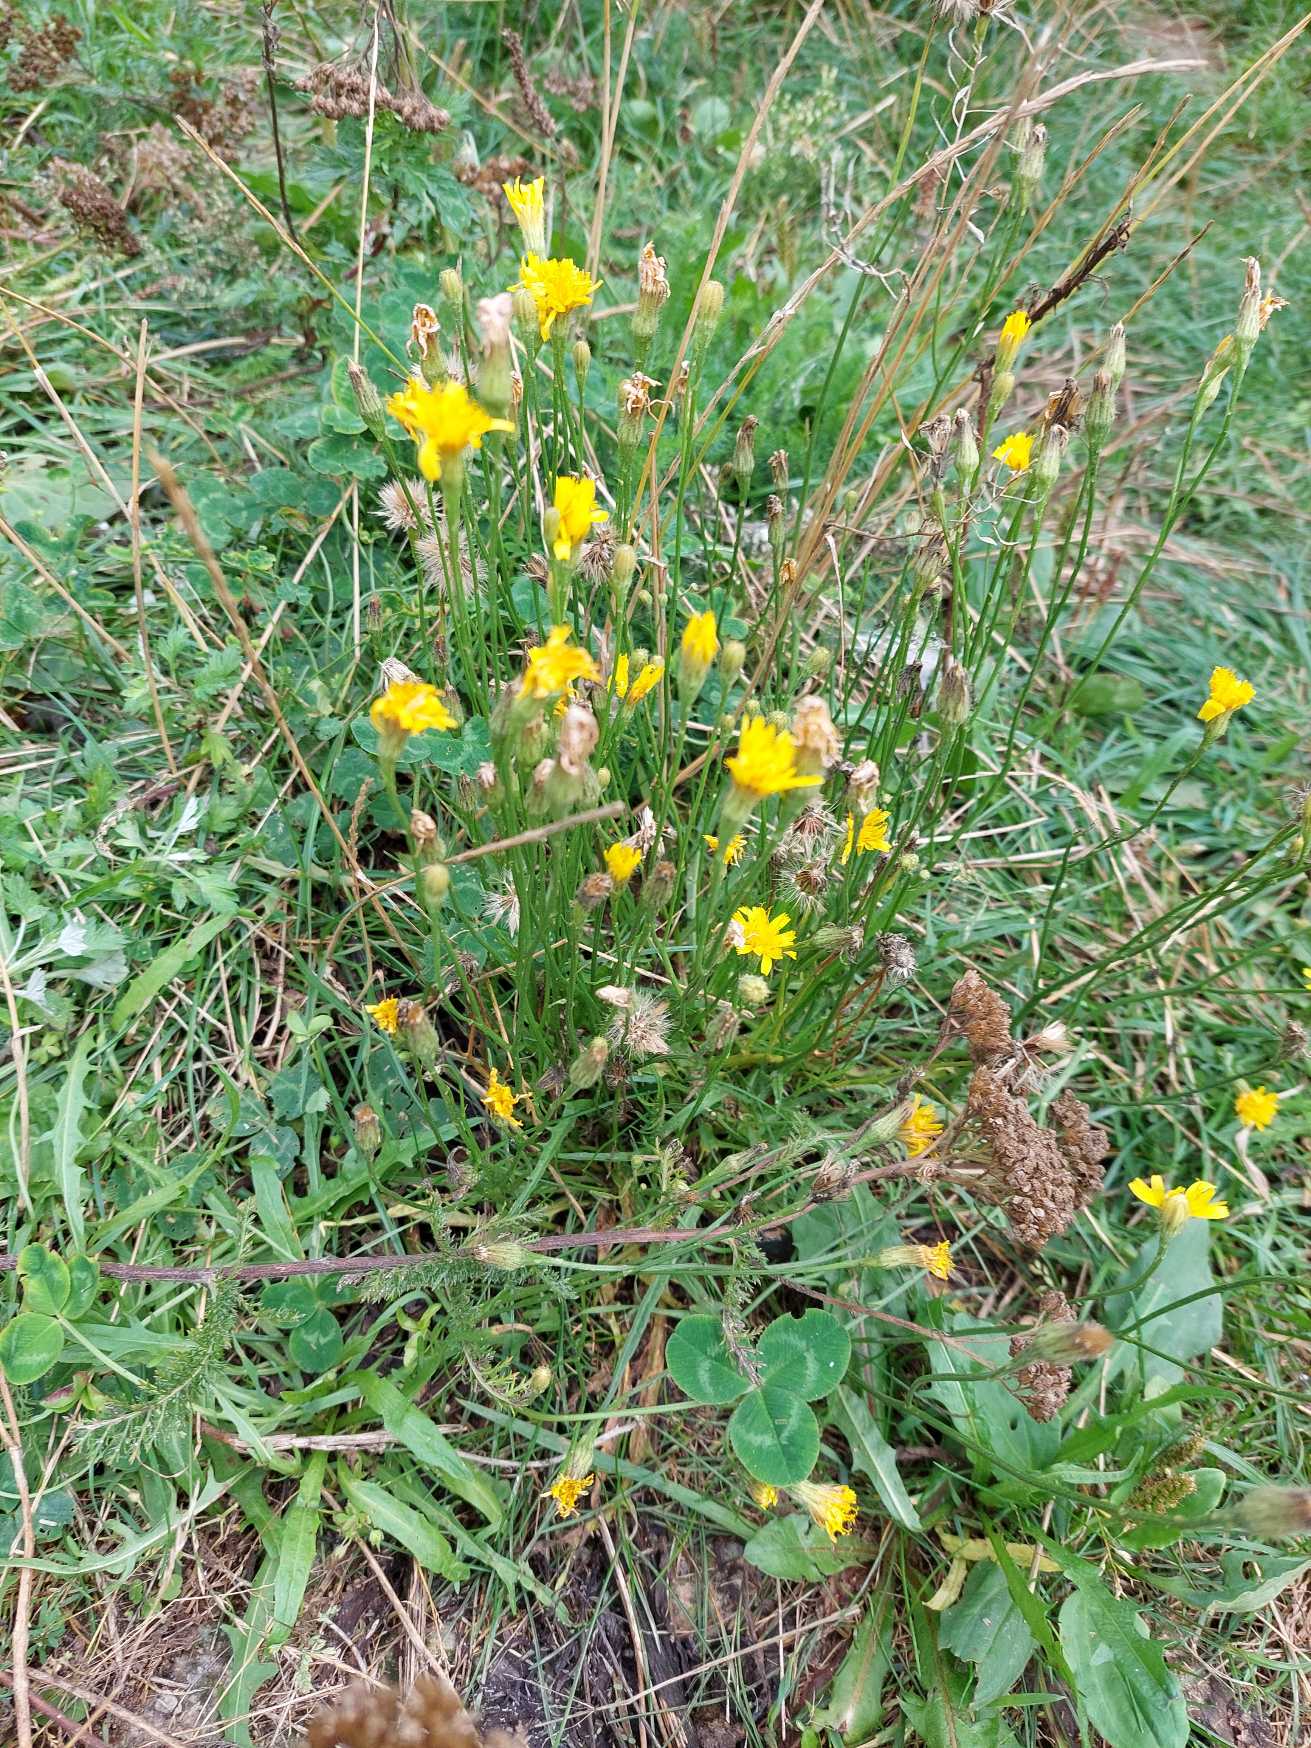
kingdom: Plantae
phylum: Tracheophyta
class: Magnoliopsida
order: Asterales
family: Asteraceae
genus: Scorzoneroides
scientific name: Scorzoneroides autumnalis
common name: Høst-borst
